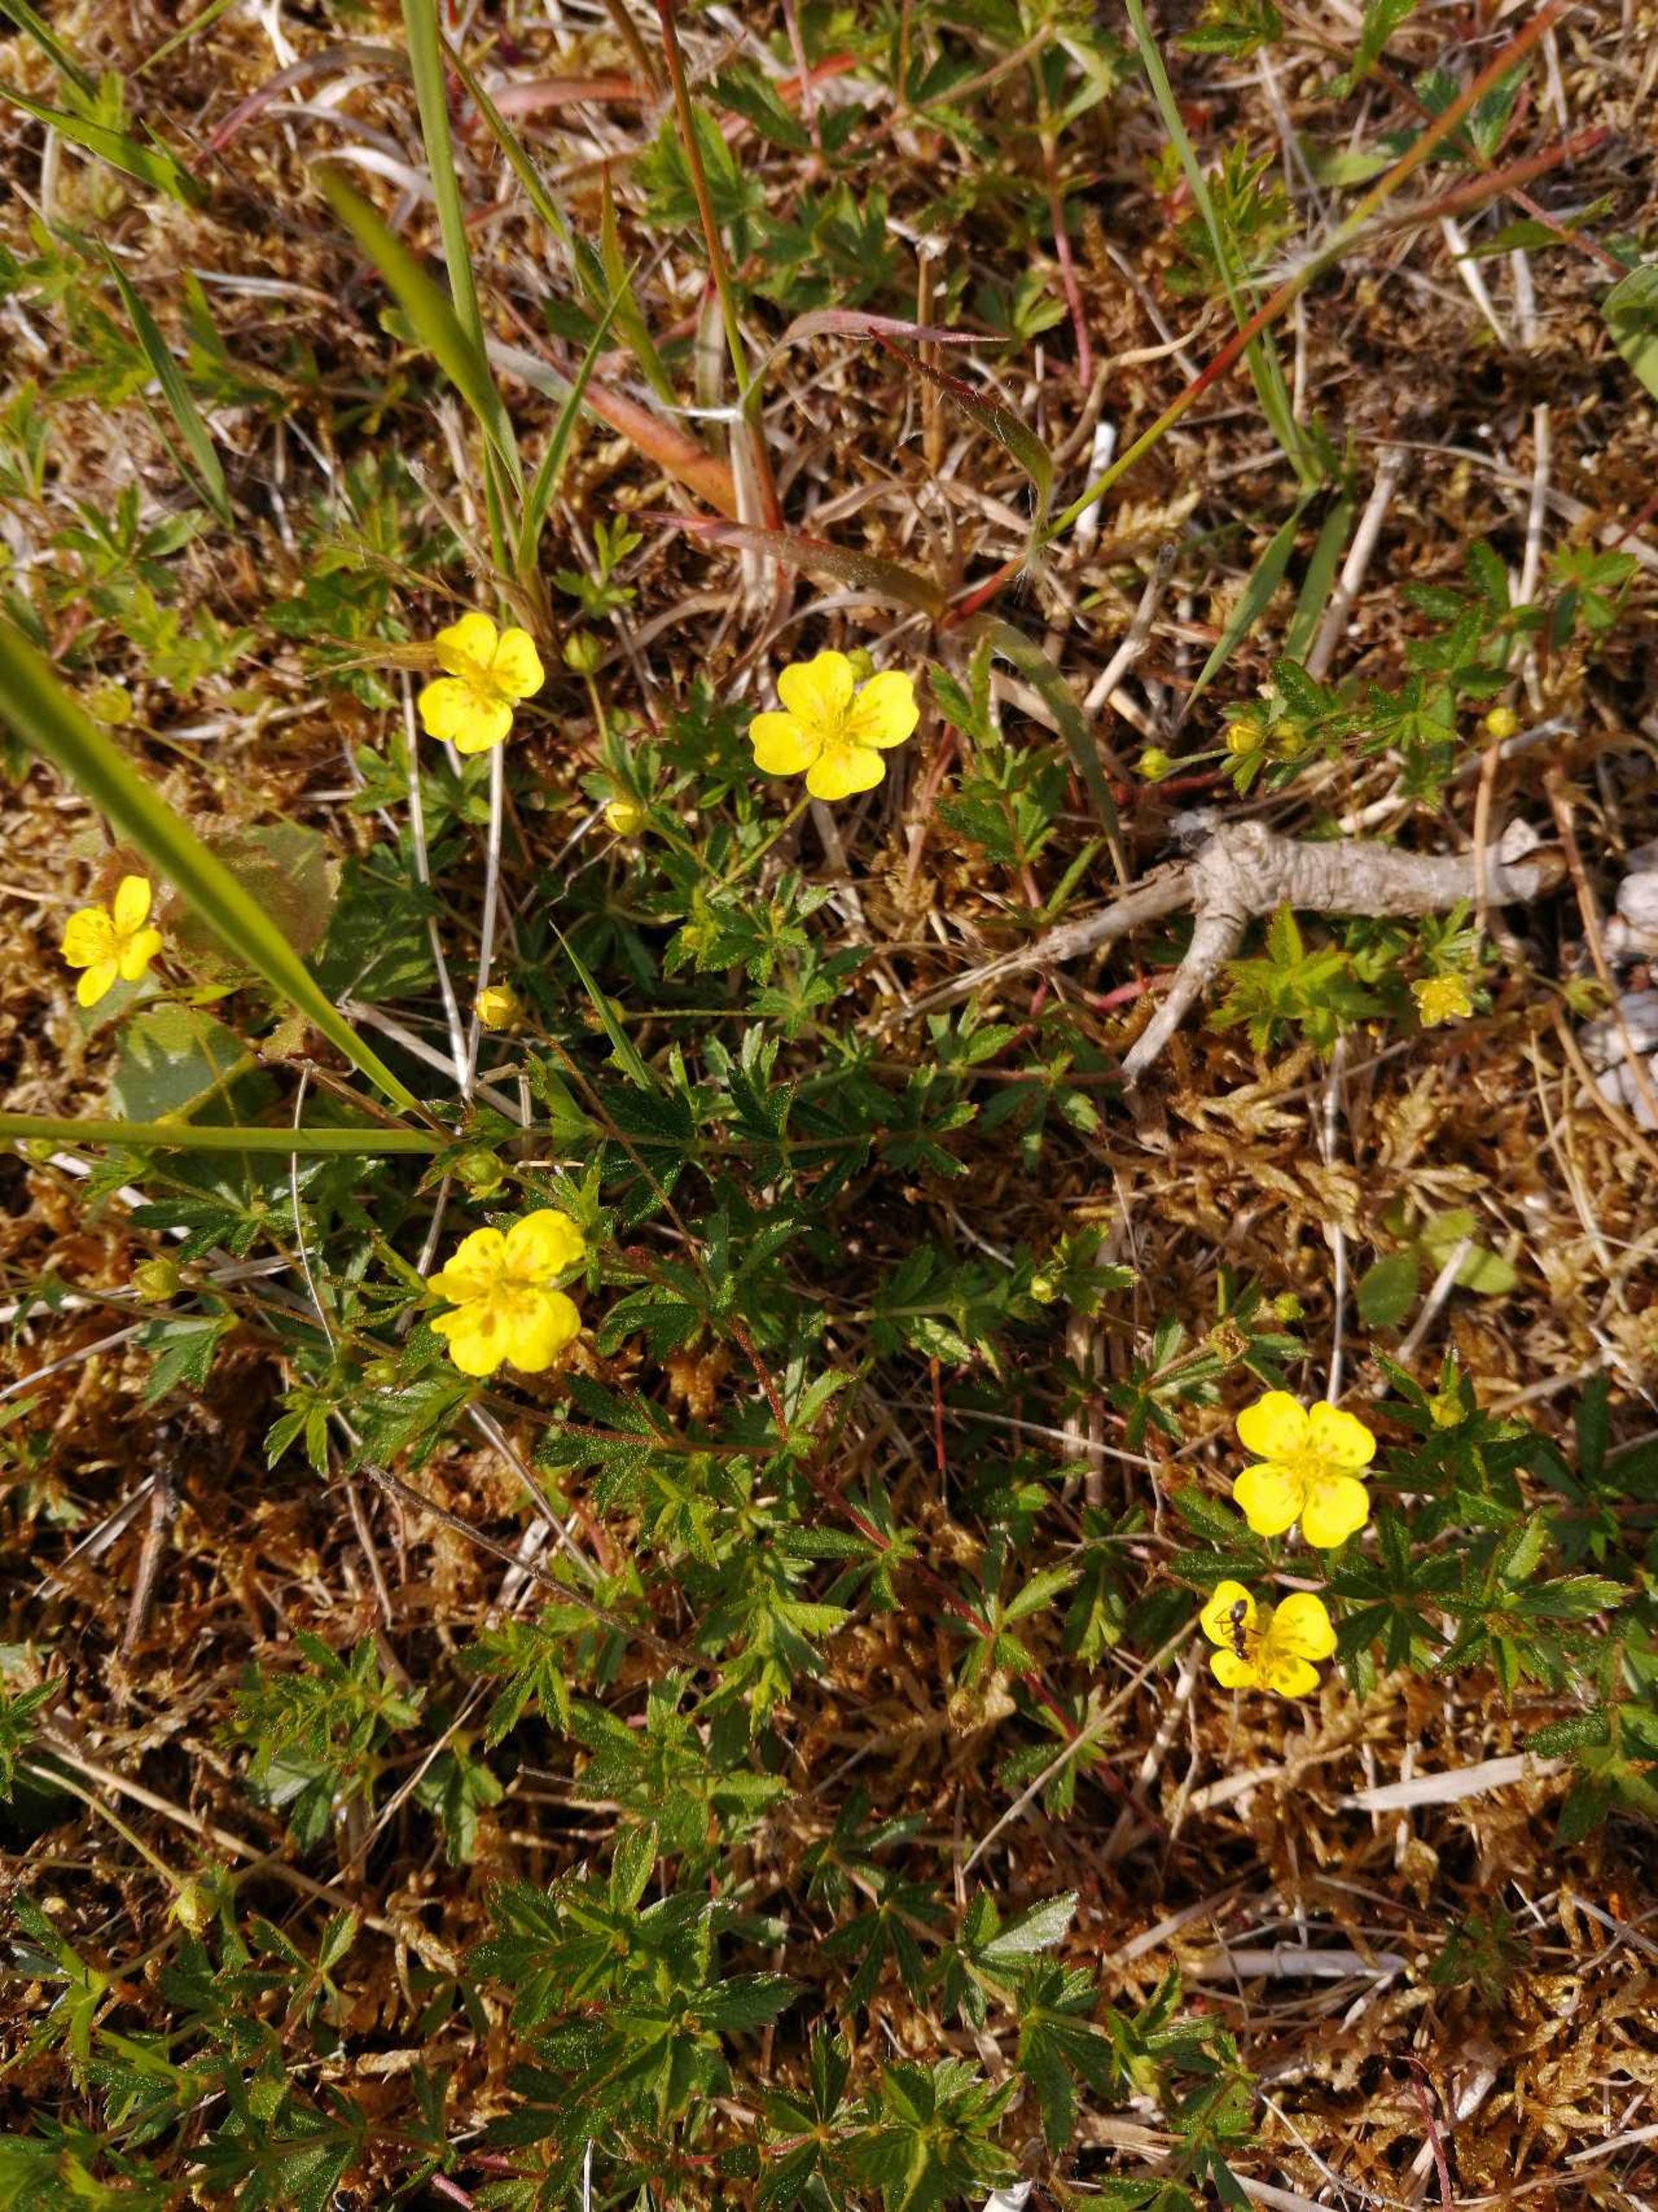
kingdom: Plantae
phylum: Tracheophyta
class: Magnoliopsida
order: Rosales
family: Rosaceae
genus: Potentilla
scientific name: Potentilla erecta
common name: Tormentil
